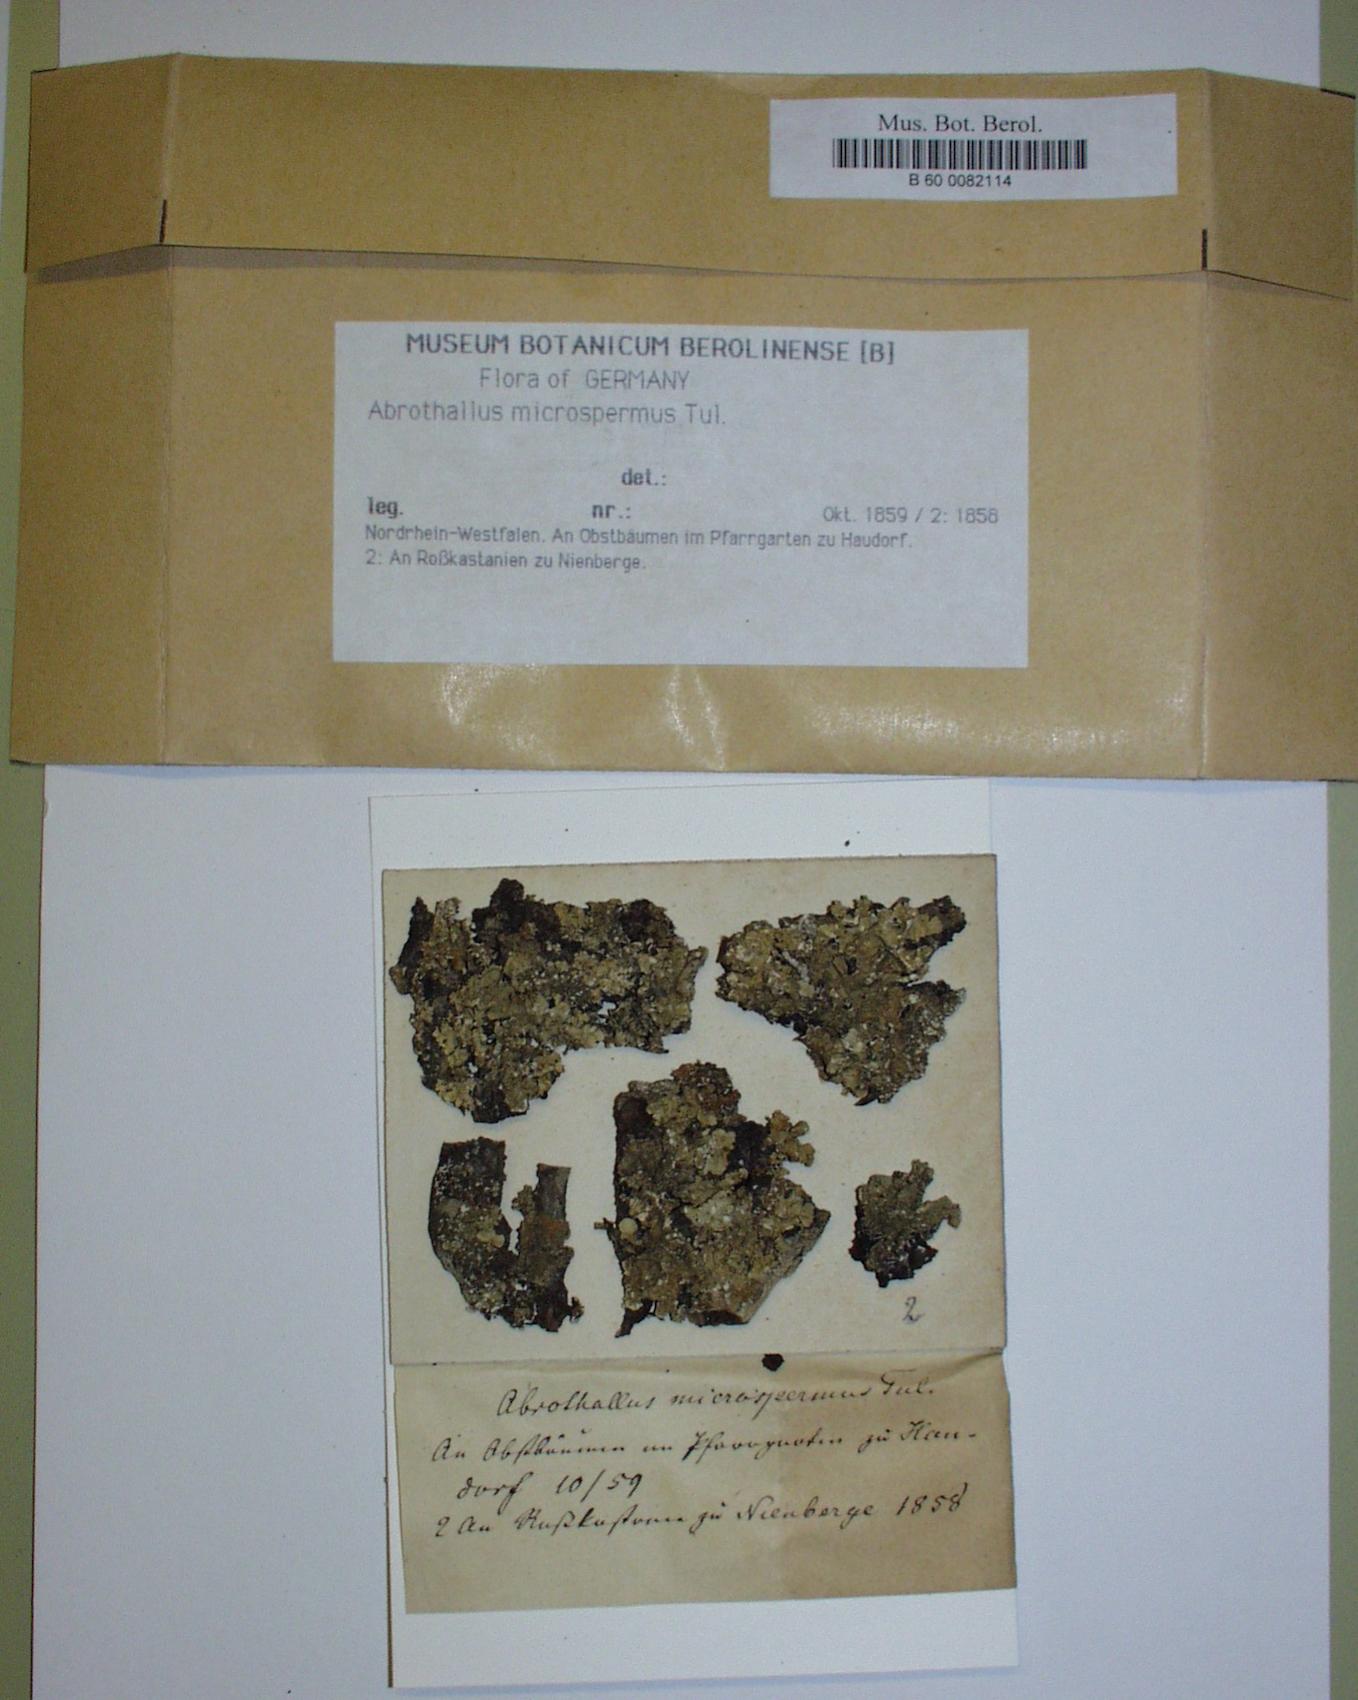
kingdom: Fungi
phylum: Ascomycota
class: Dothideomycetes
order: Abrothallales
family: Abrothallaceae
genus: Abrothallus
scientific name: Abrothallus microspermus
